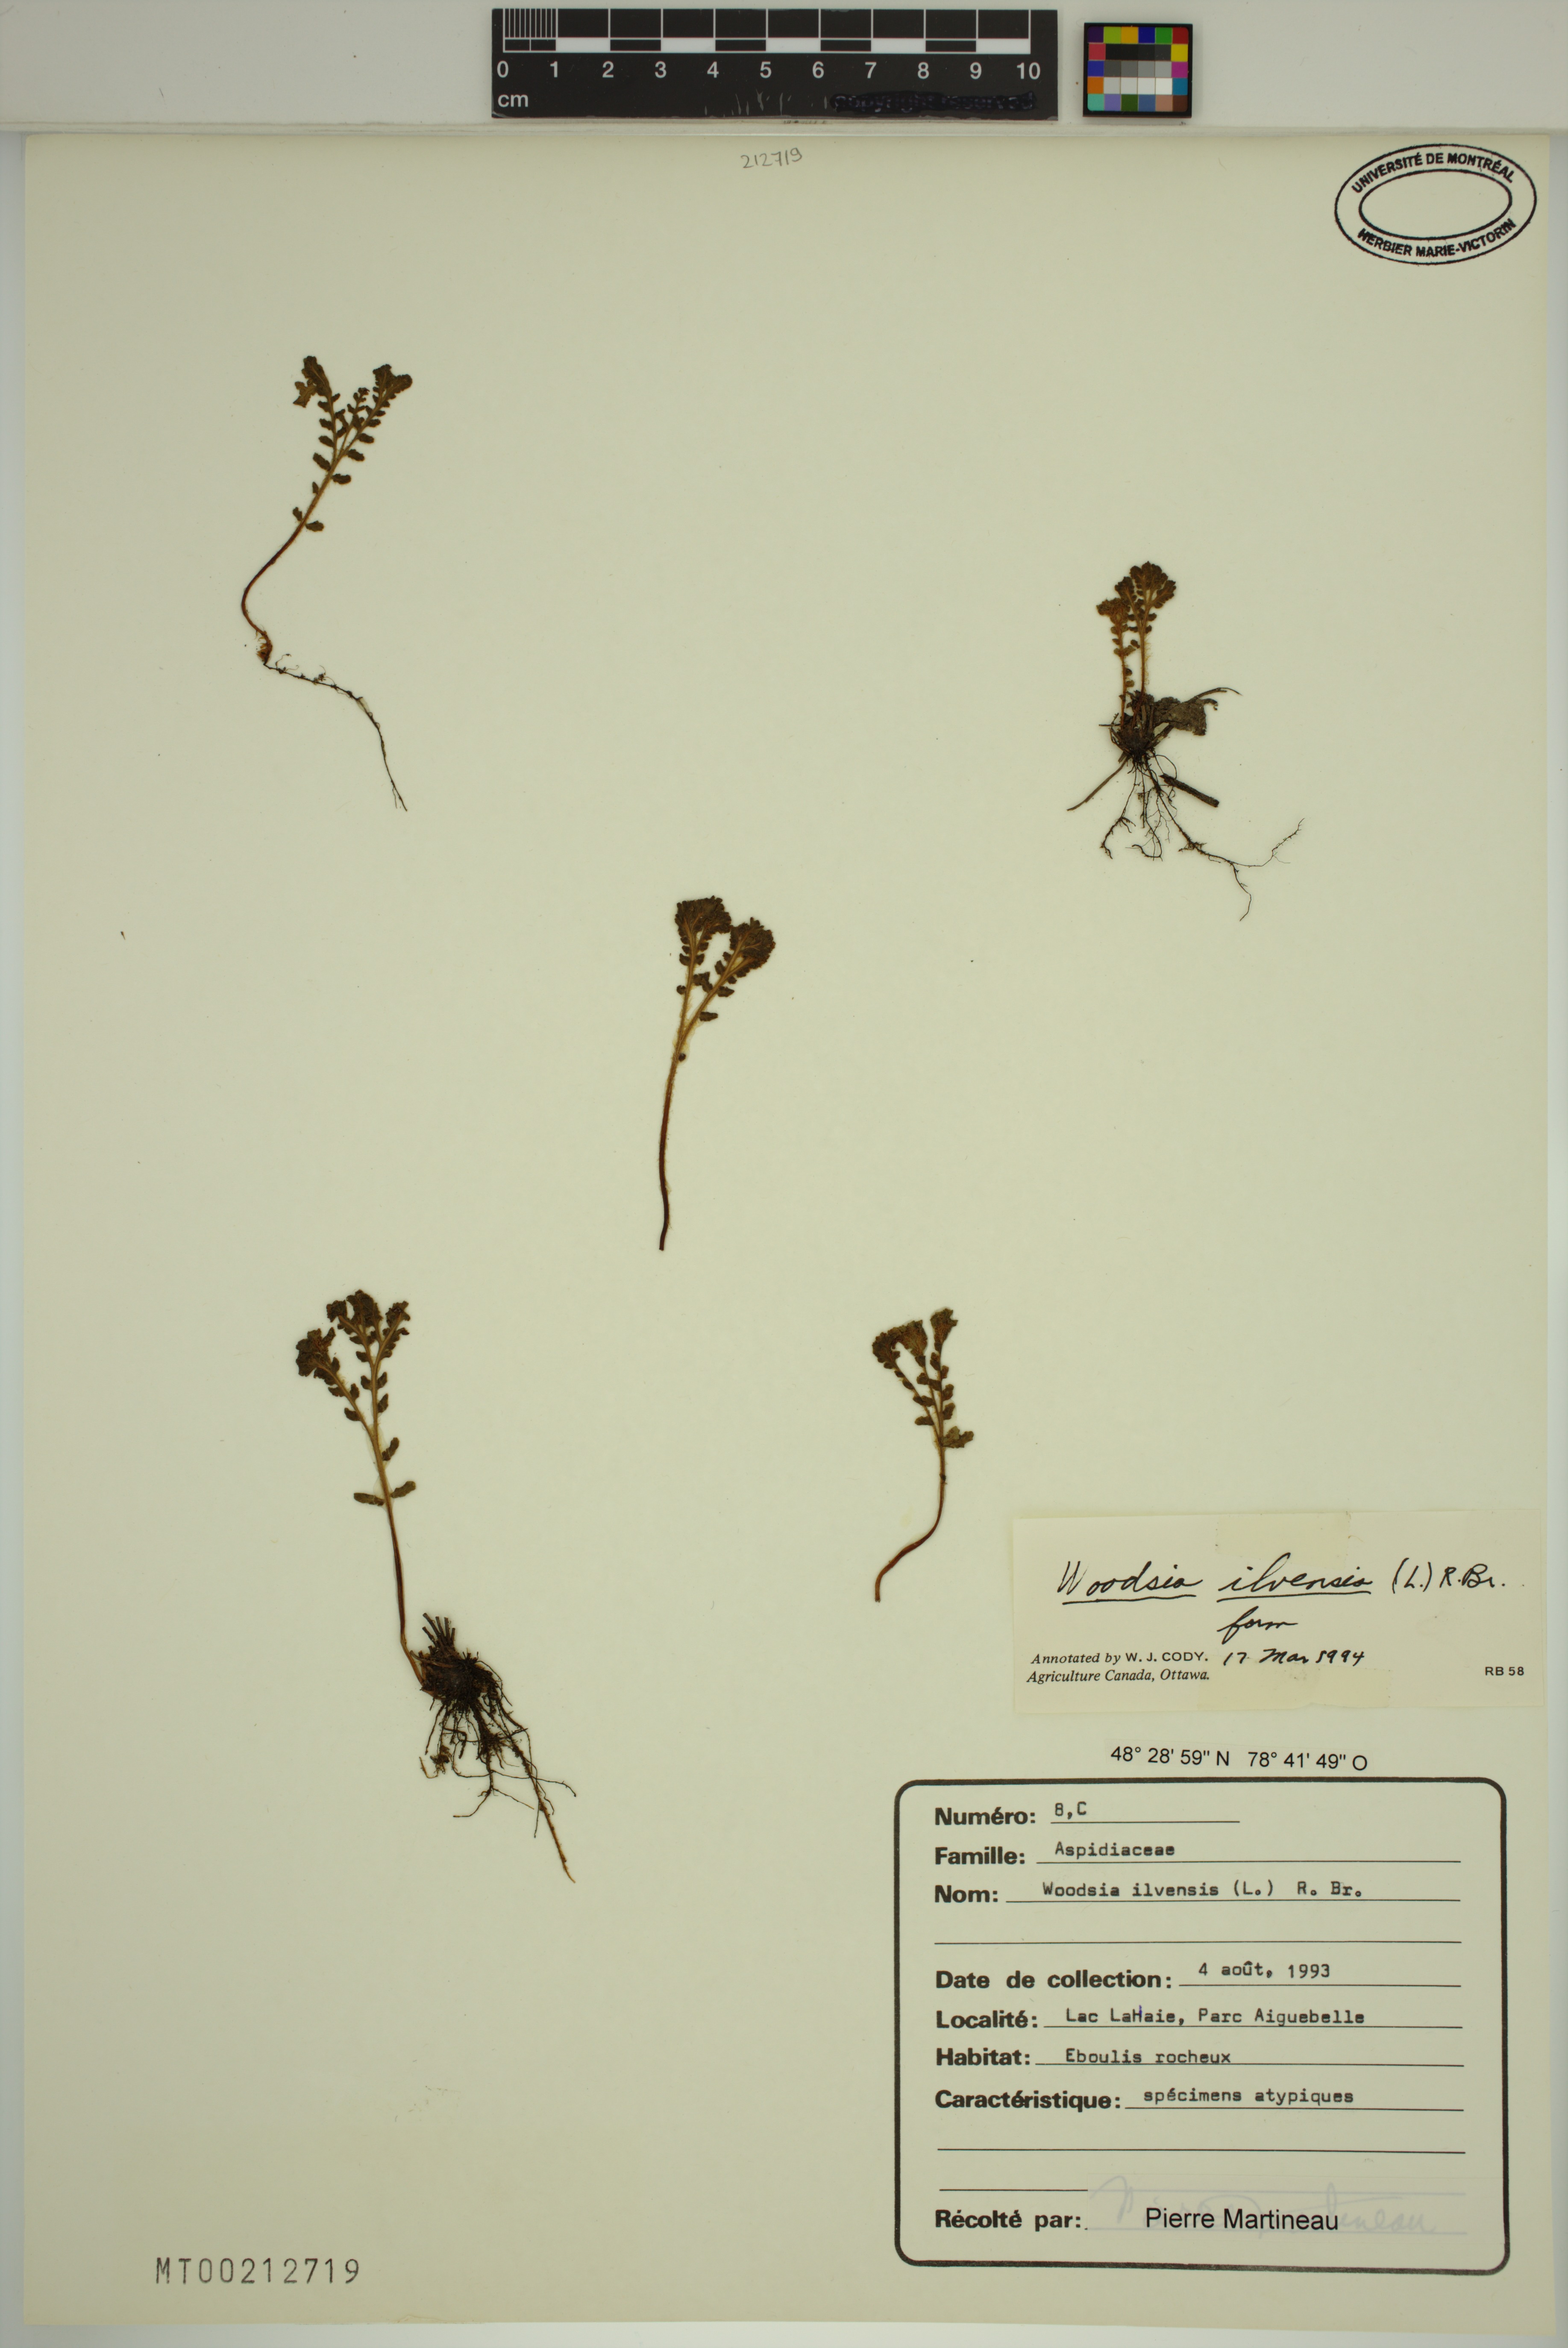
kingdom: Plantae
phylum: Tracheophyta
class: Polypodiopsida
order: Polypodiales
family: Woodsiaceae
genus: Woodsia
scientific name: Woodsia ilvensis
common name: Fragrant woodsia
